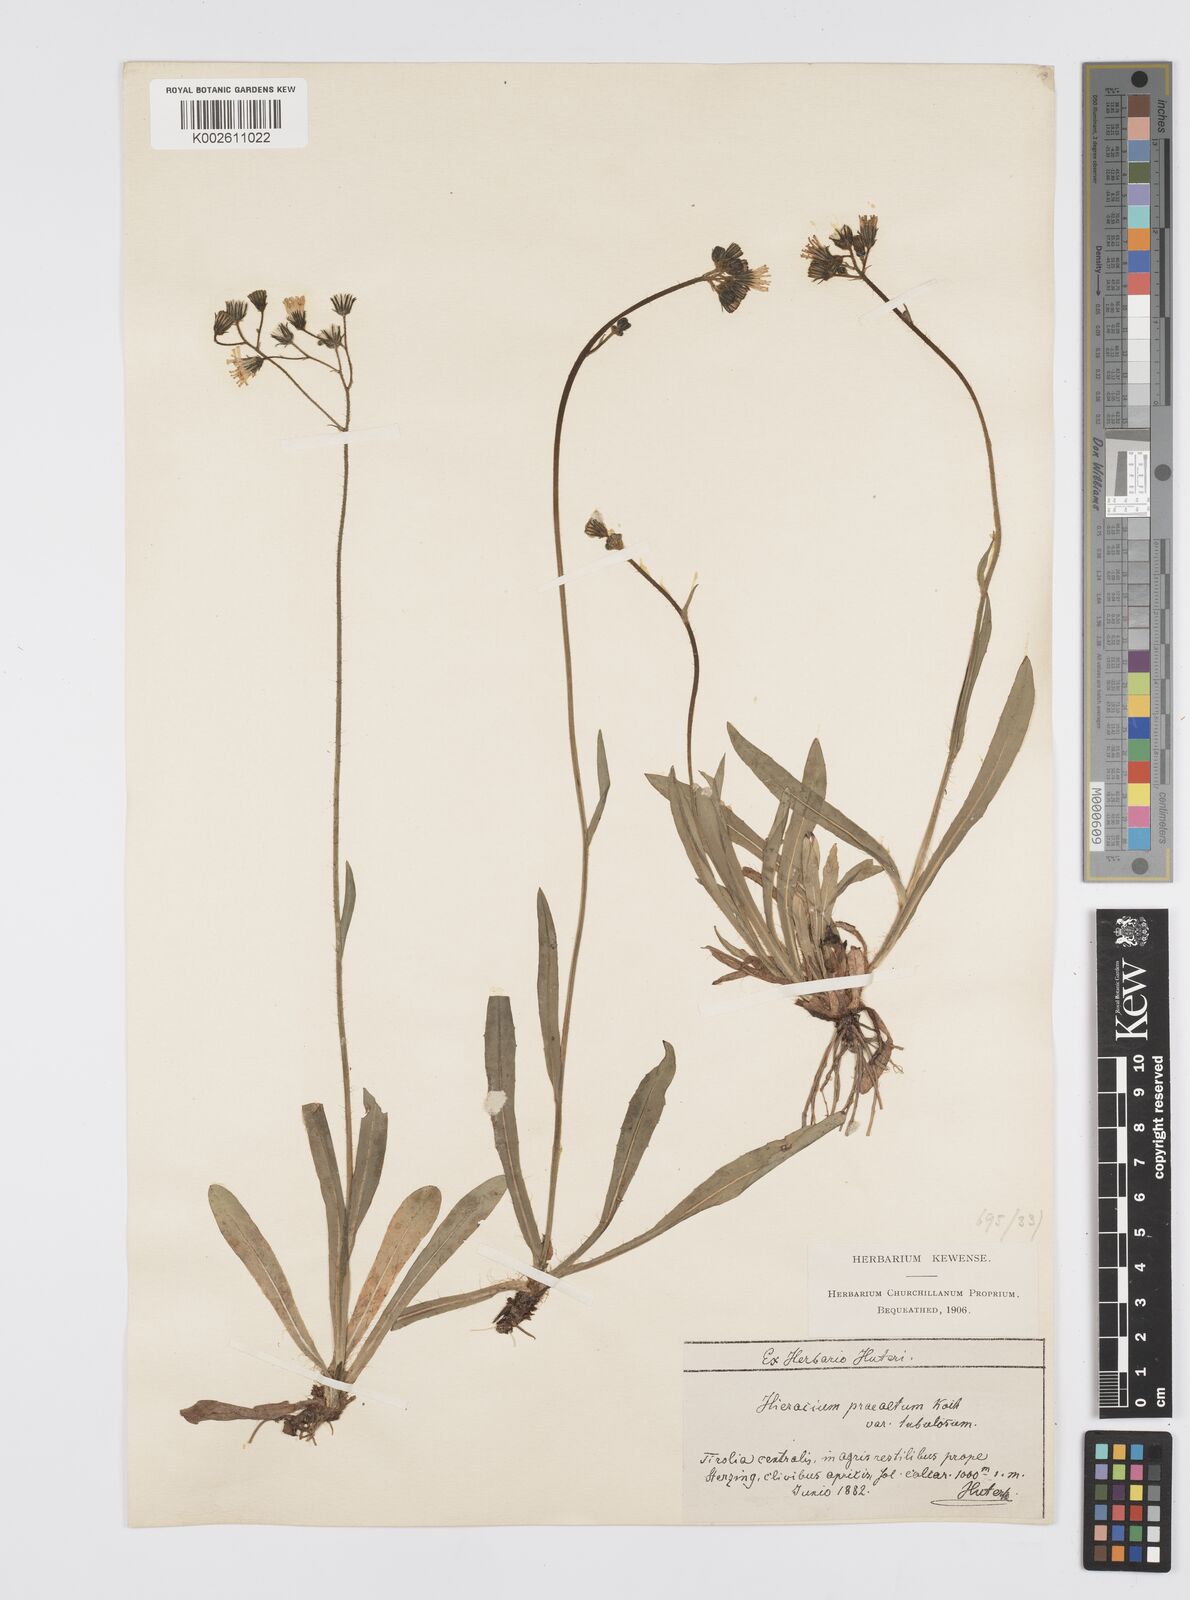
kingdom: Plantae
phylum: Tracheophyta
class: Magnoliopsida
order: Asterales
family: Asteraceae
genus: Pilosella
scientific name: Pilosella piloselloides
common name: Glaucous king-devil
